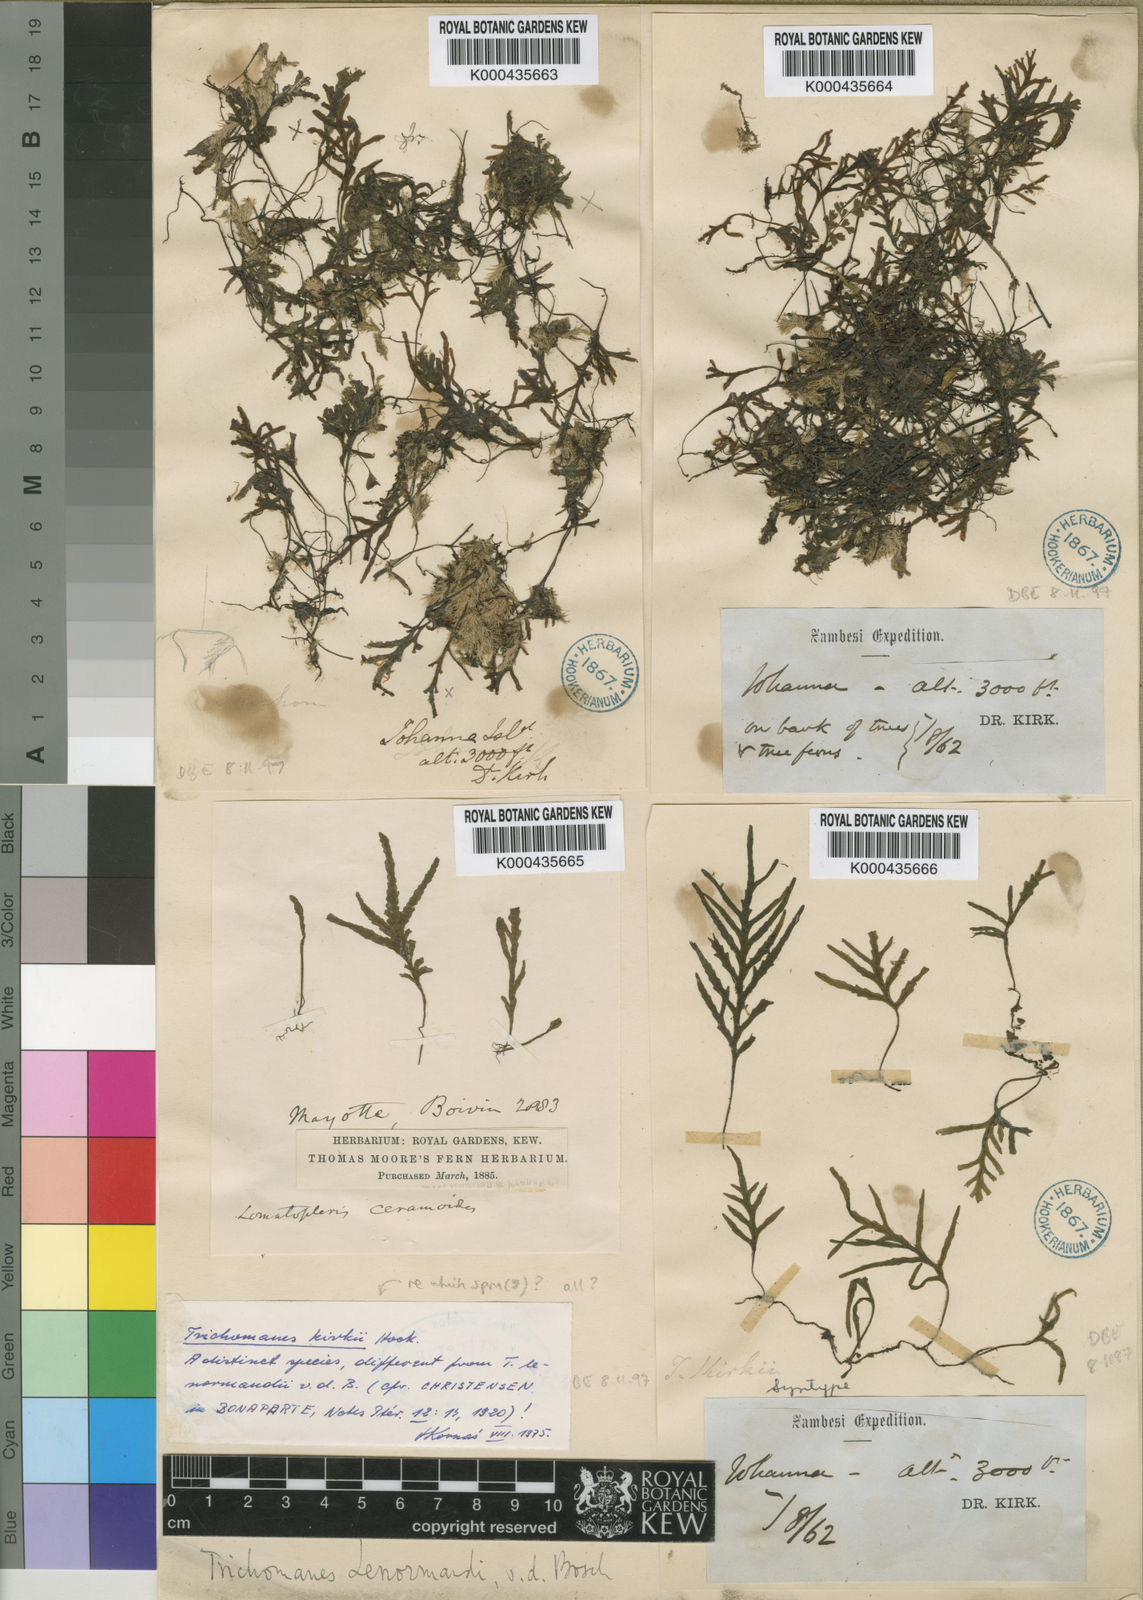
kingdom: Plantae
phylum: Tracheophyta
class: Polypodiopsida
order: Hymenophyllales
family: Hymenophyllaceae
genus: Didymoglossum
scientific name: Didymoglossum kirkii
